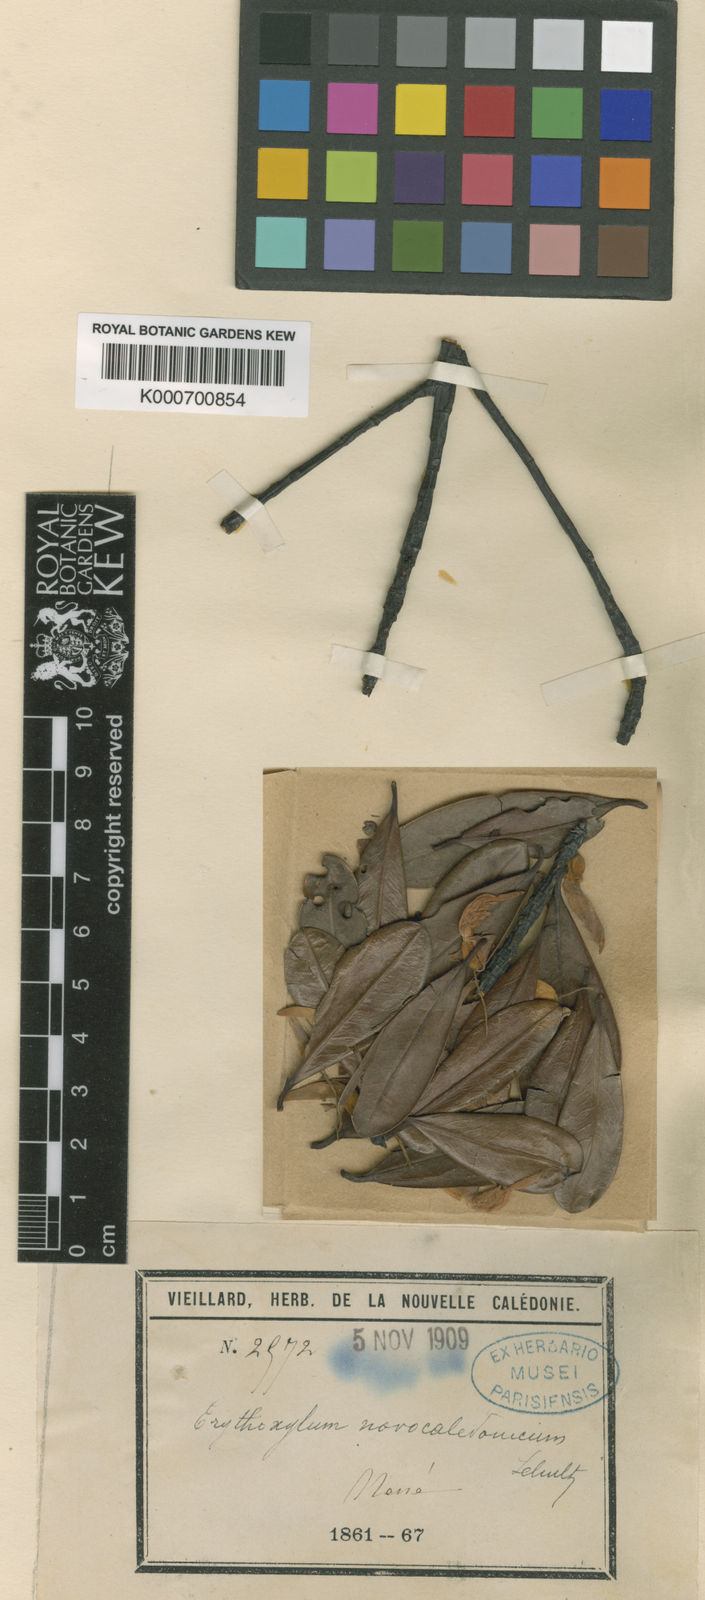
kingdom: Plantae
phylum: Tracheophyta
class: Magnoliopsida
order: Malpighiales
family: Erythroxylaceae
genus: Erythroxylum
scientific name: Erythroxylum novocaledonicum
